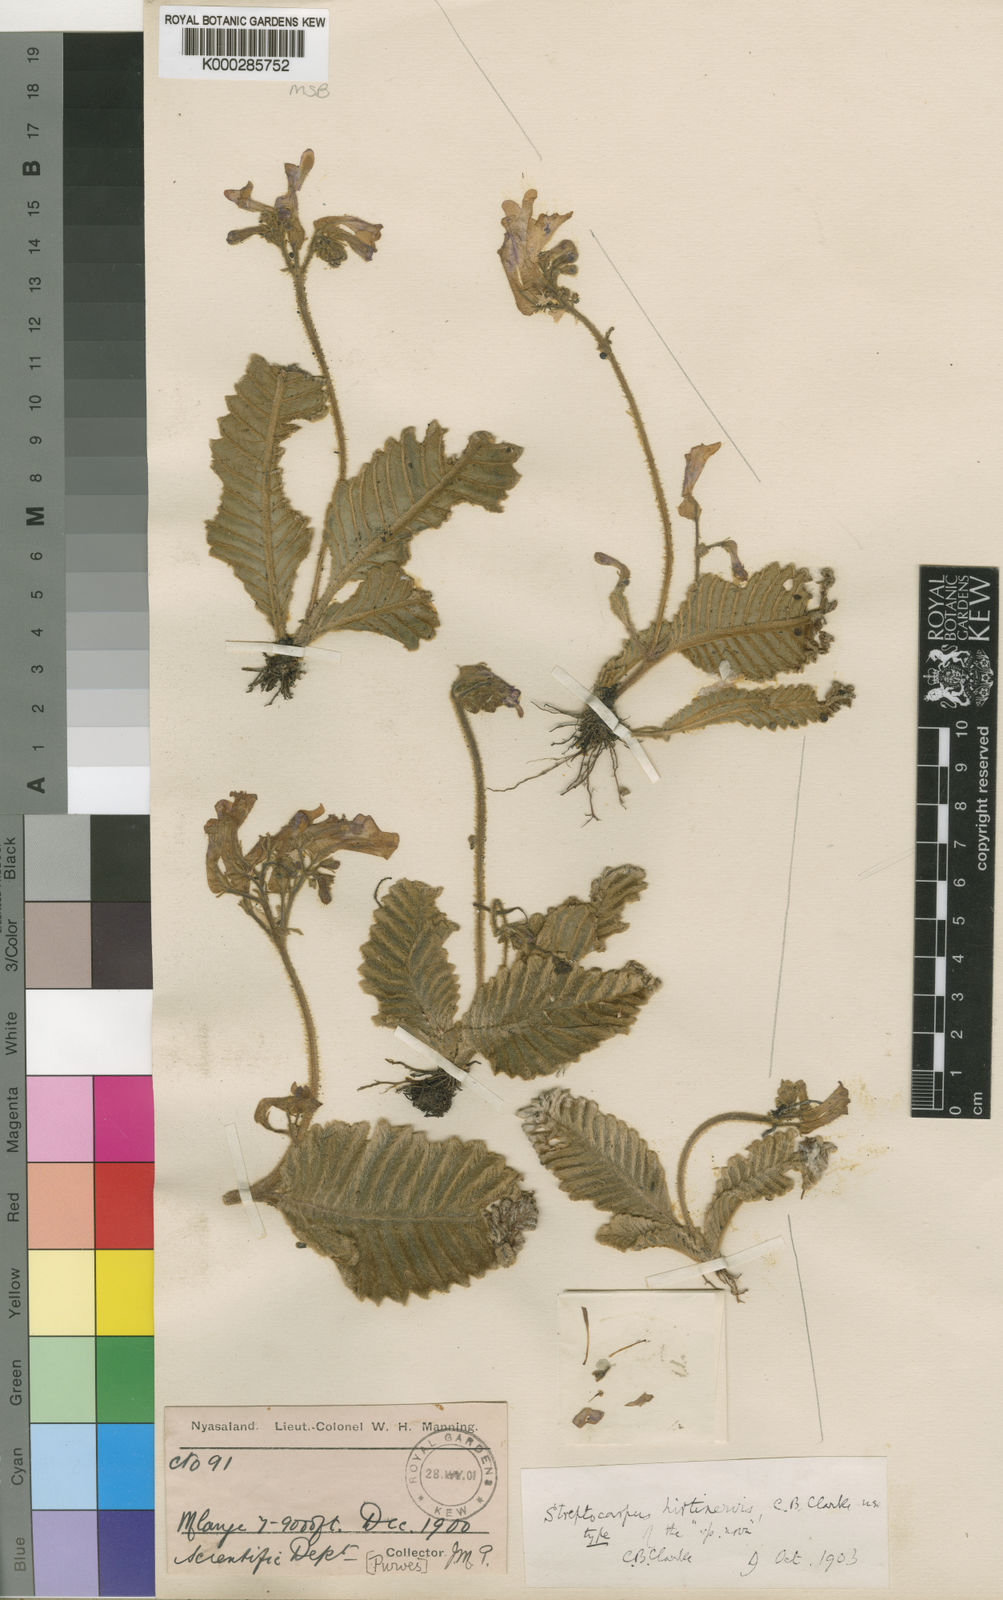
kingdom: Plantae
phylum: Tracheophyta
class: Magnoliopsida
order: Lamiales
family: Gesneriaceae
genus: Streptocarpus
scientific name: Streptocarpus hirtinervis
